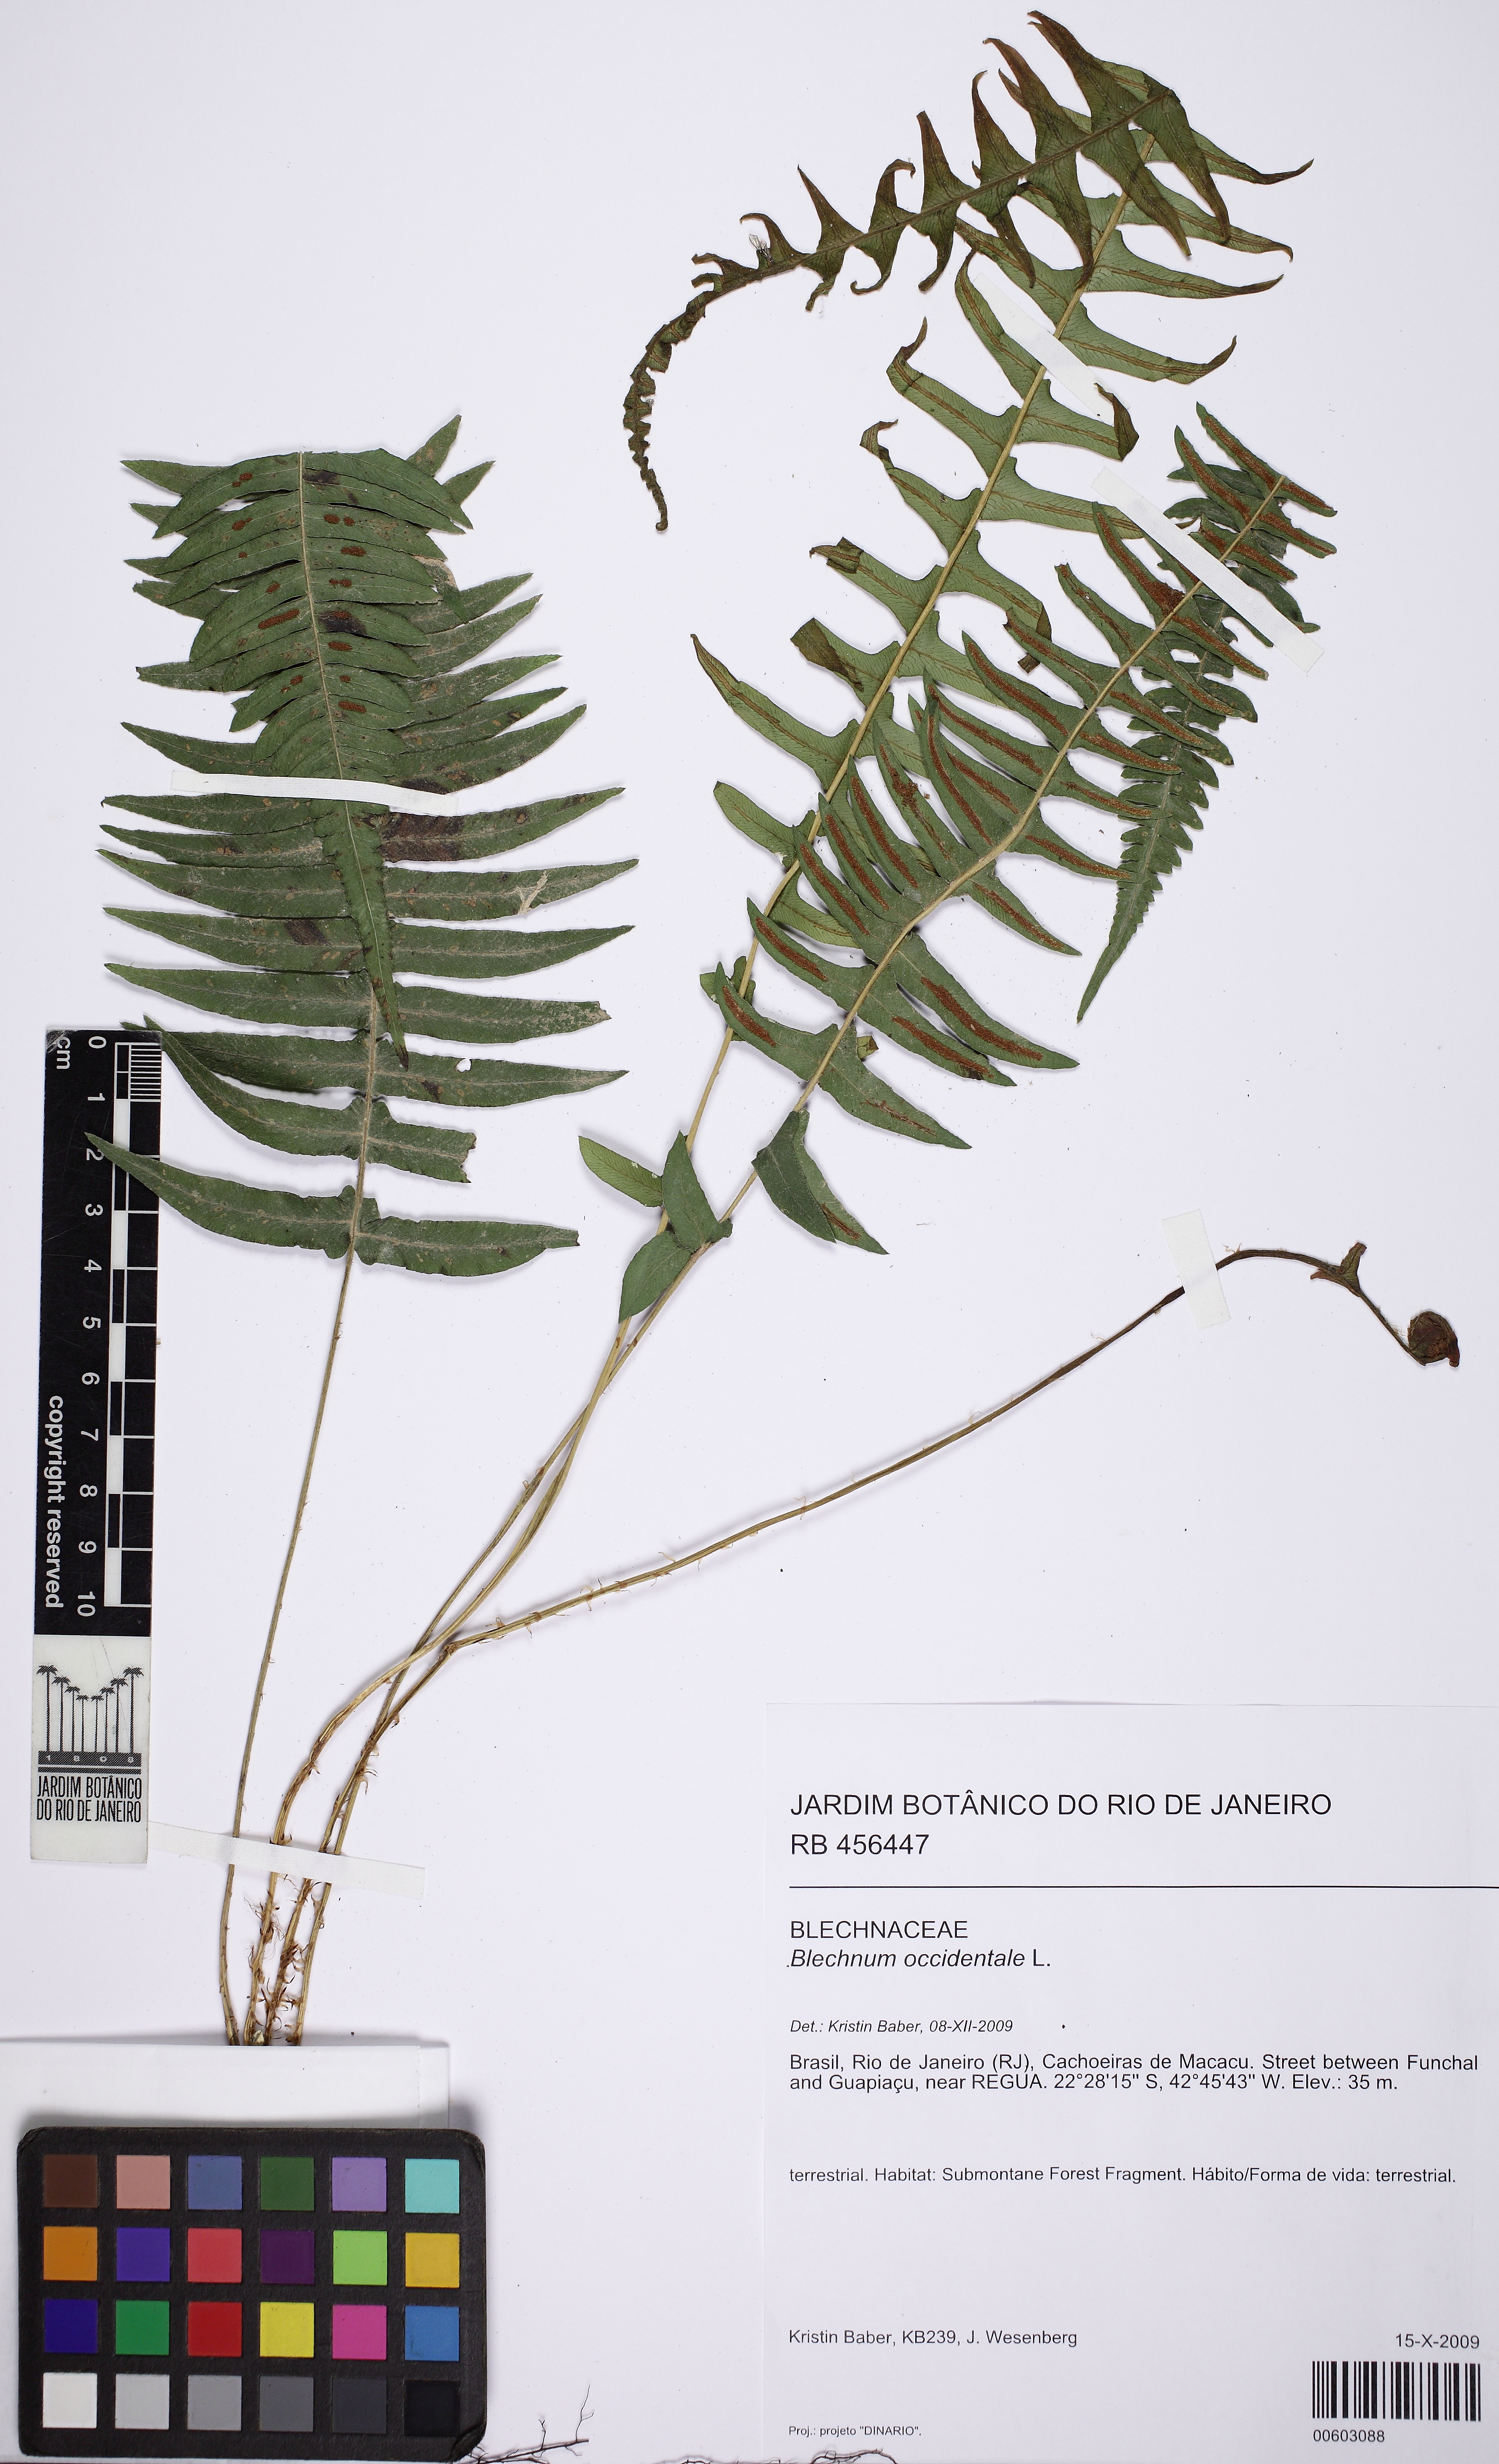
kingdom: Plantae
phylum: Tracheophyta
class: Polypodiopsida
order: Polypodiales
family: Blechnaceae
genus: Blechnum
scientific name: Blechnum occidentale
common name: Hammock fern
